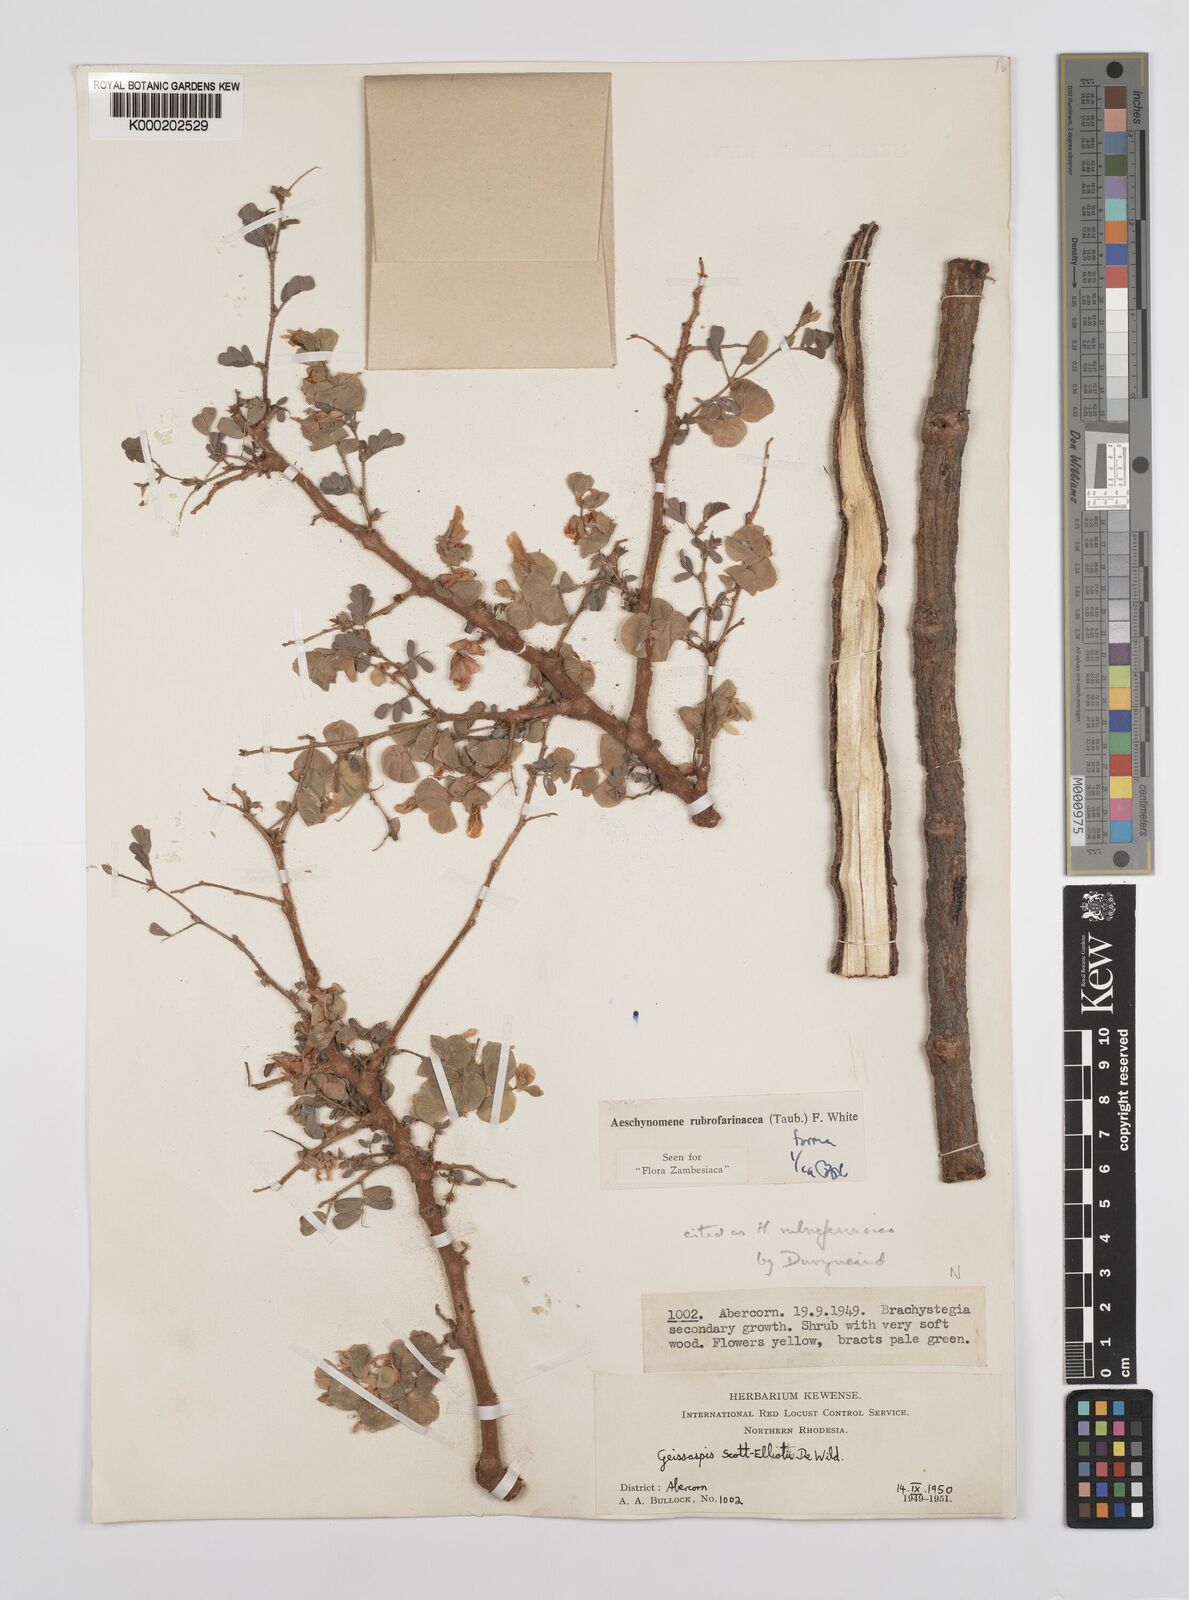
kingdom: Plantae
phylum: Tracheophyta
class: Magnoliopsida
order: Fabales
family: Fabaceae
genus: Aeschynomene
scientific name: Aeschynomene rubrofarinacea
